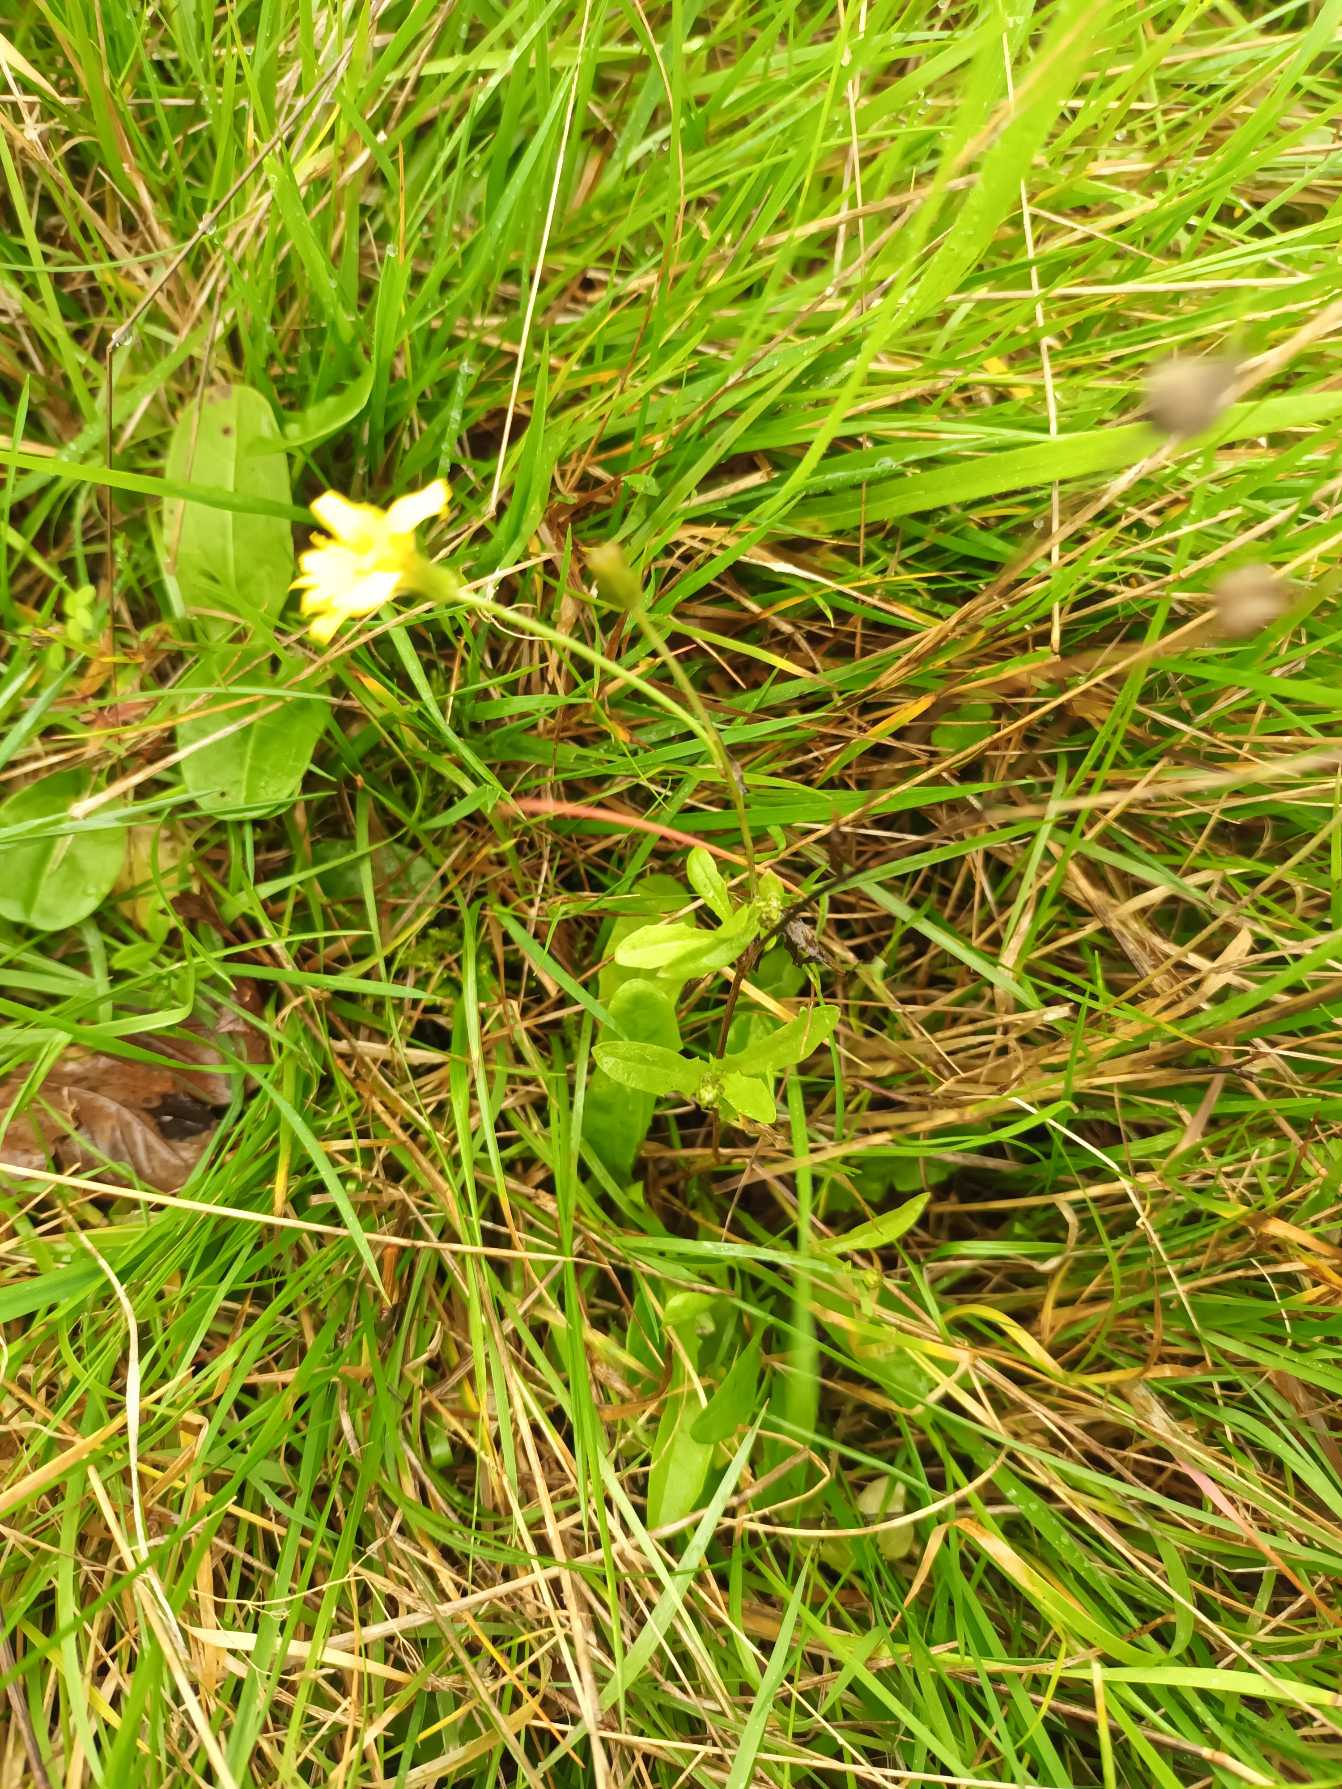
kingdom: Plantae
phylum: Tracheophyta
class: Magnoliopsida
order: Asterales
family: Asteraceae
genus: Crepis
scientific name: Crepis capillaris
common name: Grøn høgeskæg
